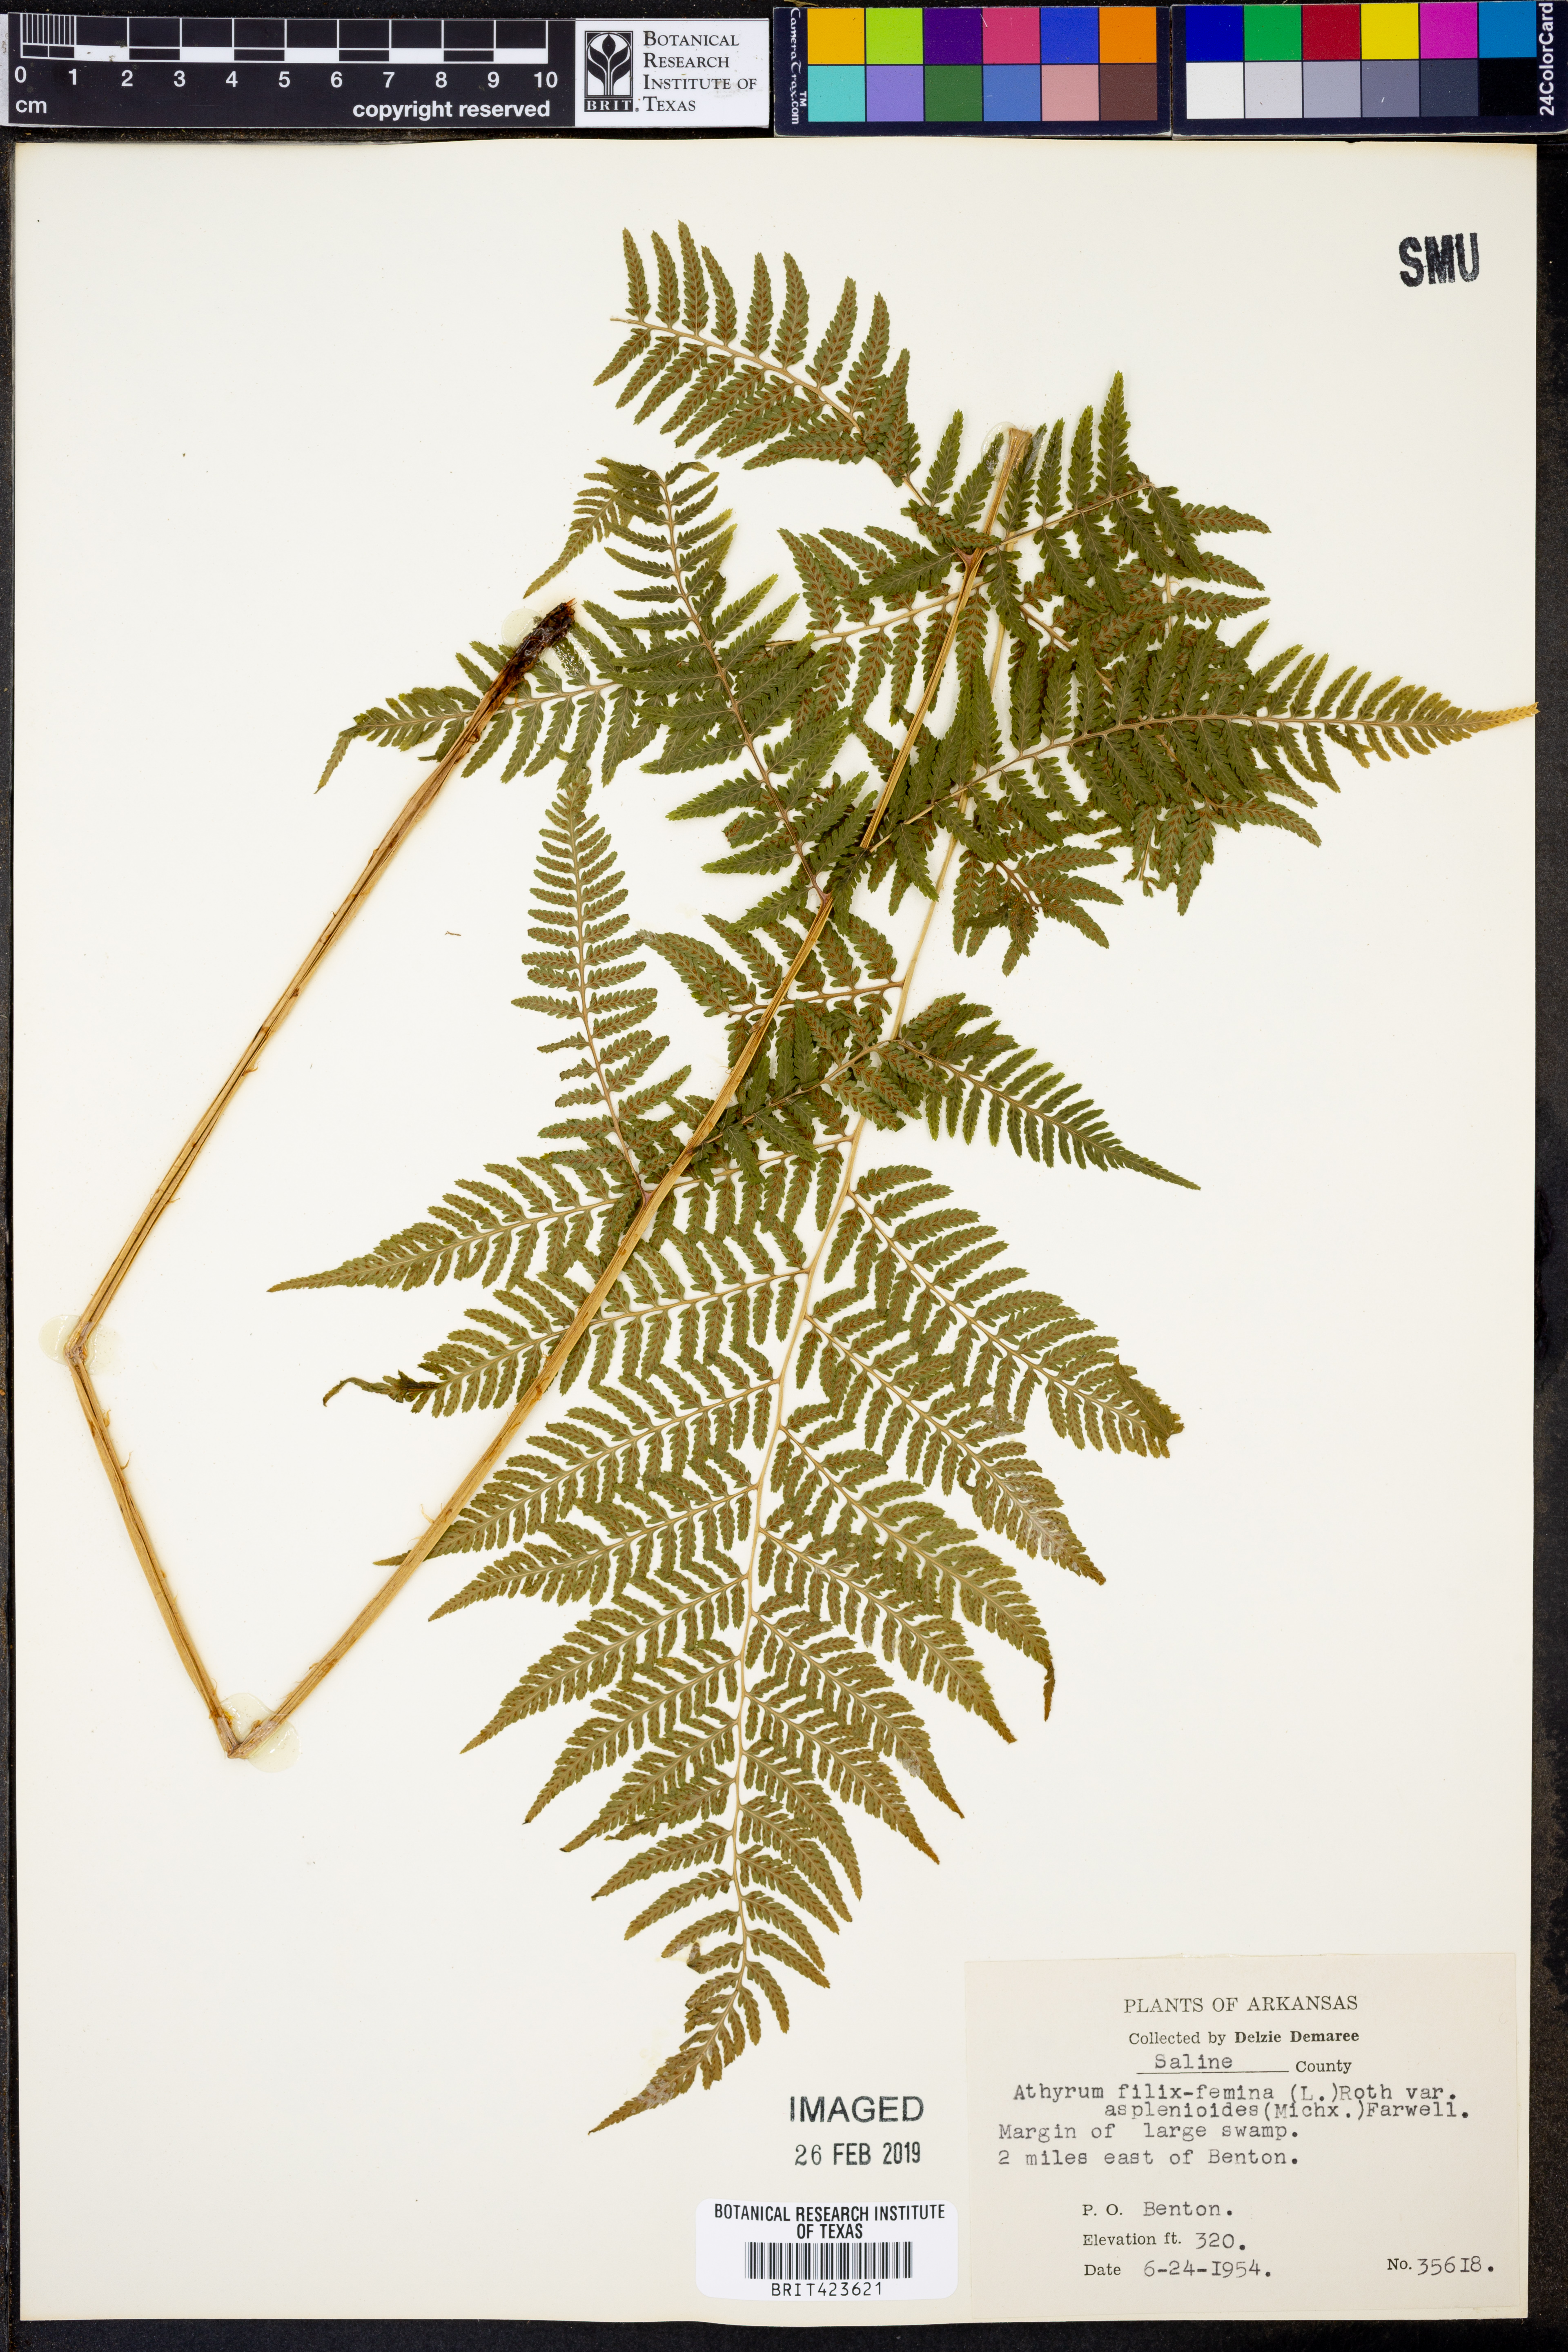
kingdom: Plantae
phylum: Tracheophyta
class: Polypodiopsida
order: Polypodiales
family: Athyriaceae
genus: Athyrium
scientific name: Athyrium asplenioides
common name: Southern lady fern
